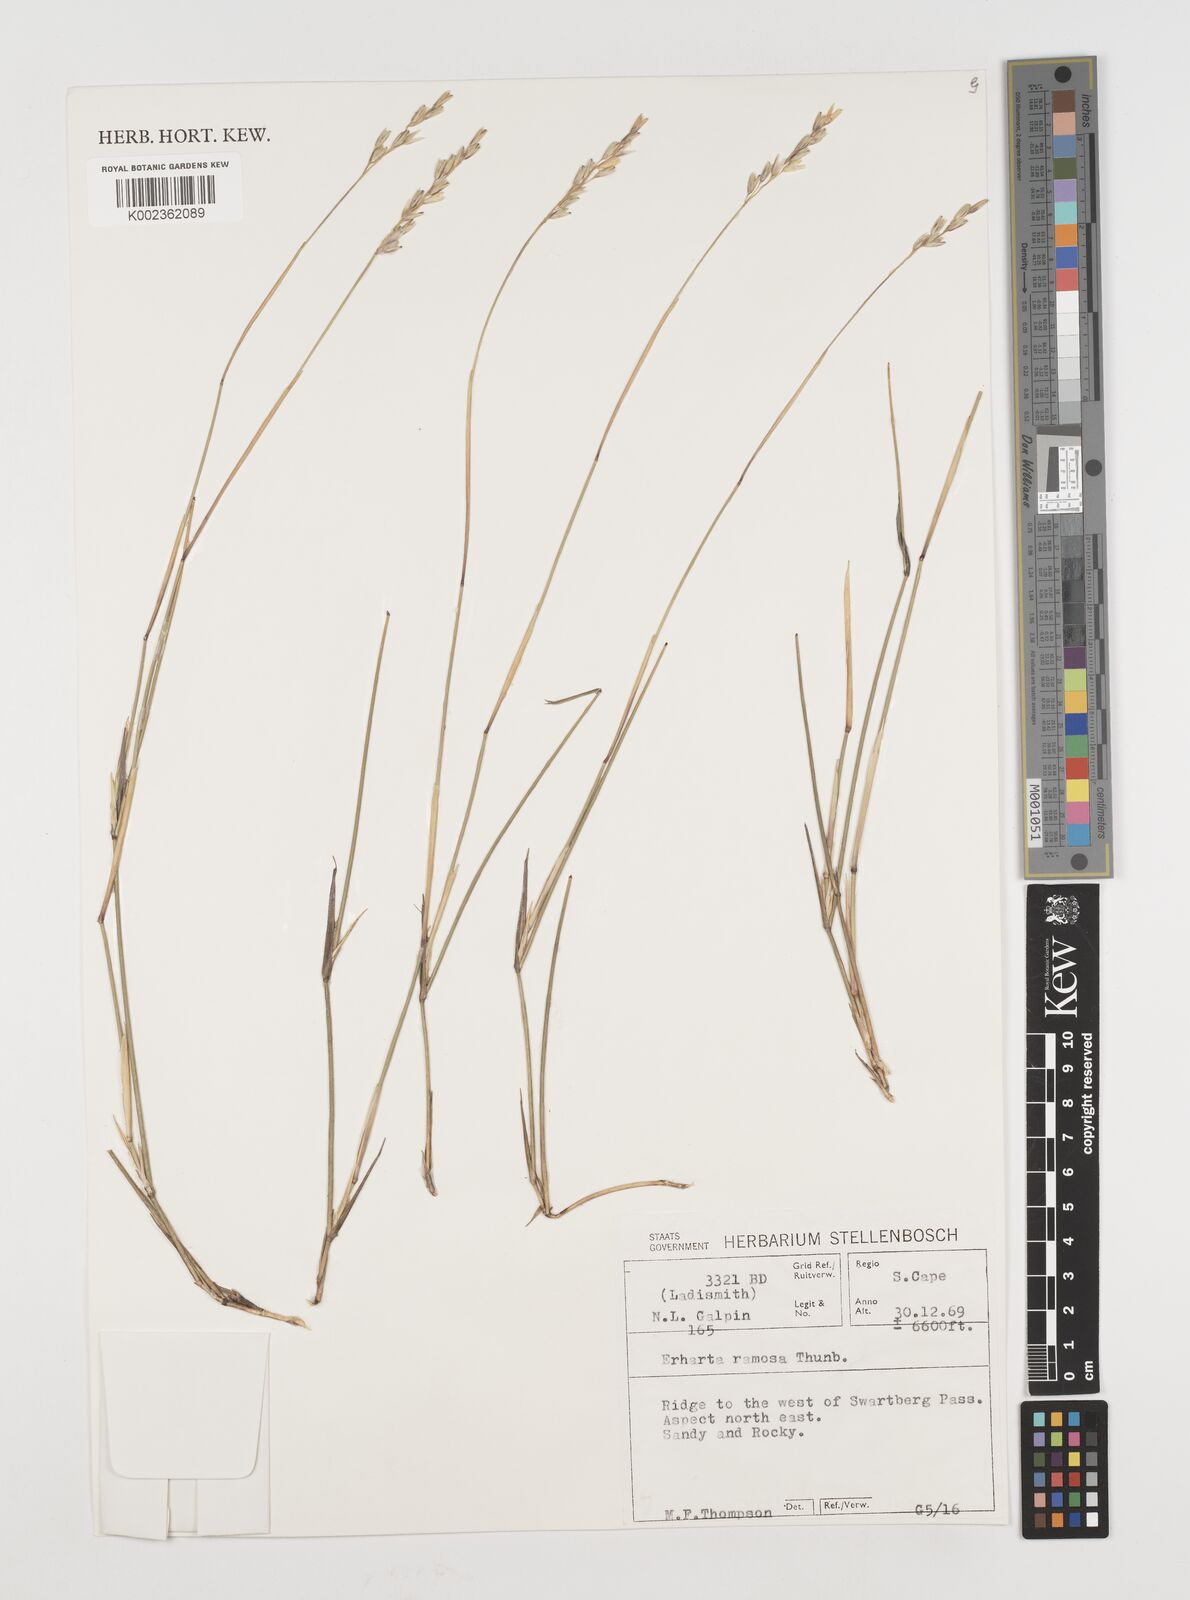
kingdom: Plantae
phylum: Tracheophyta
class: Liliopsida
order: Poales
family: Poaceae
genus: Ehrharta
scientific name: Ehrharta digyna
